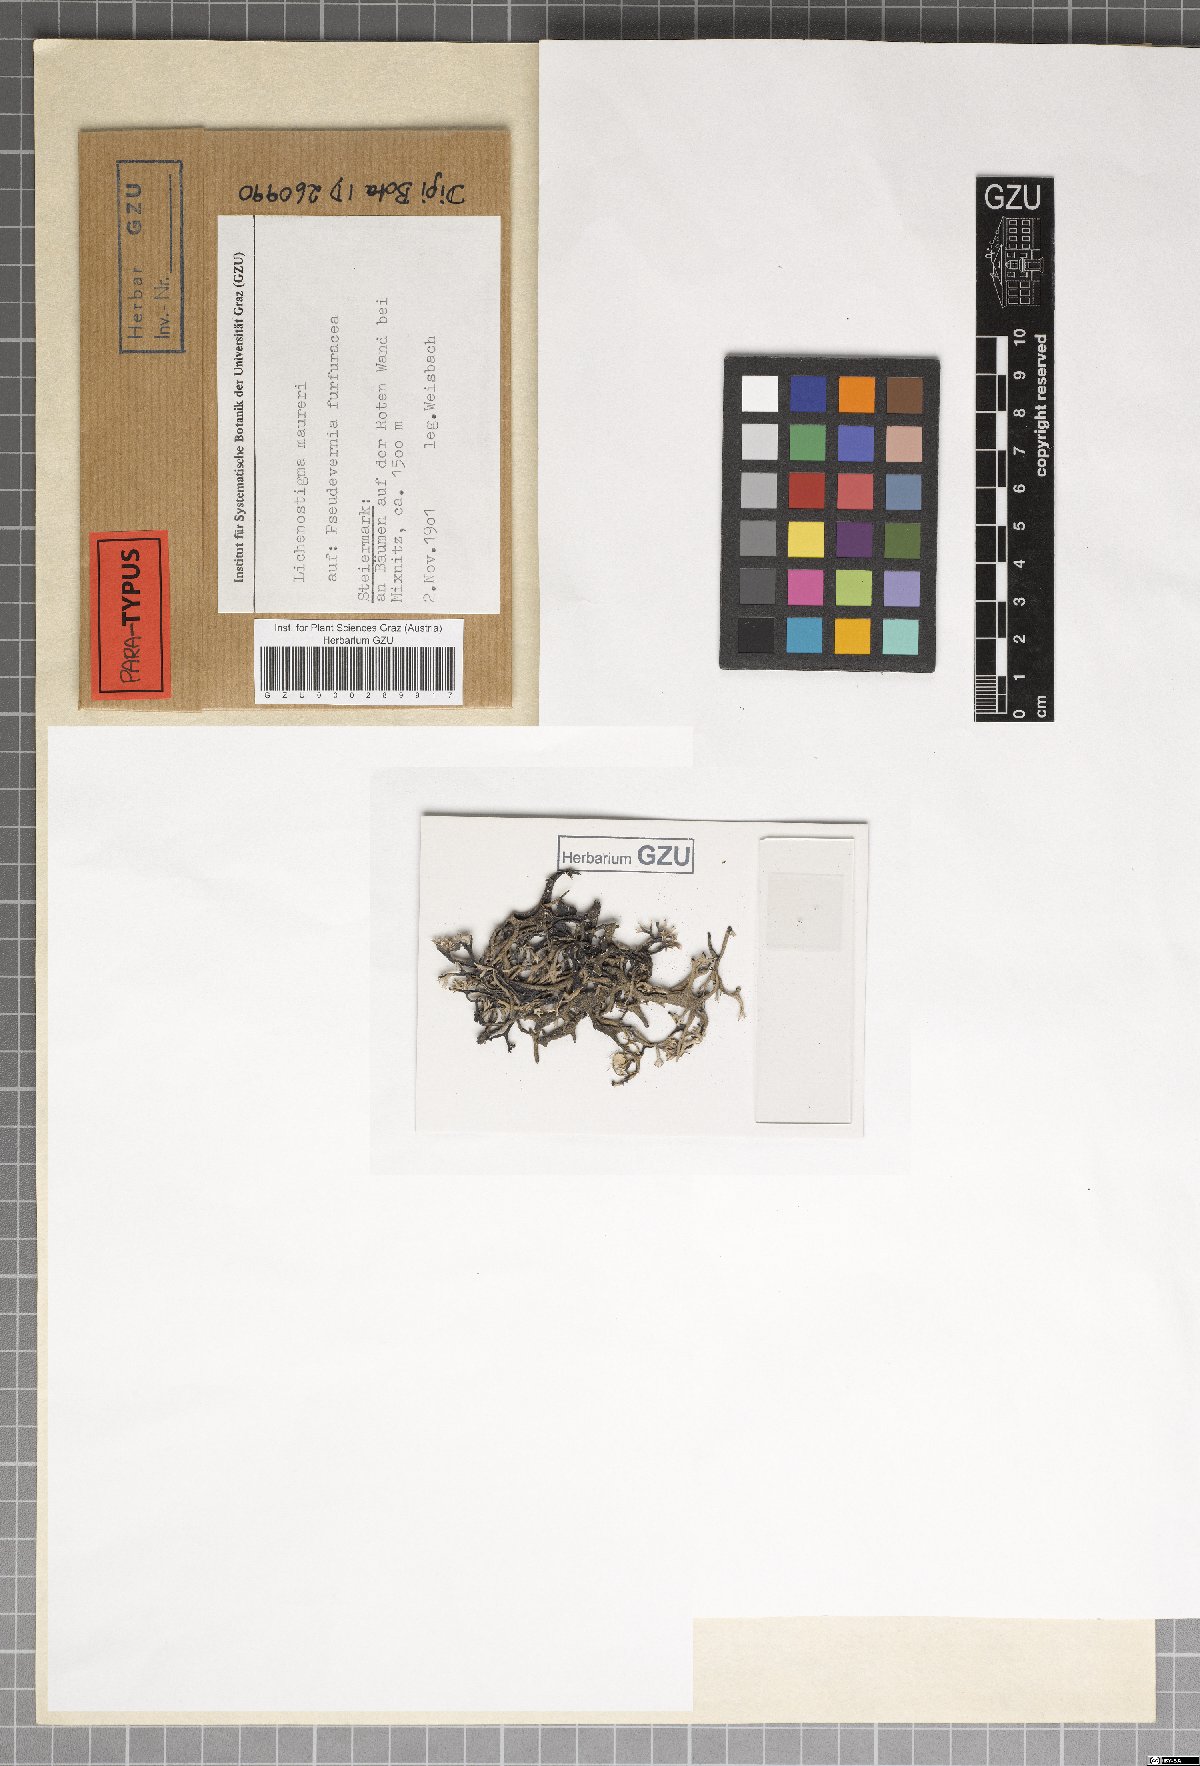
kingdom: Fungi
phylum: Ascomycota
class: Arthoniomycetes
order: Lichenostigmatales
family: Phaeococcomycetaceae
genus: Lichenostigma
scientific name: Lichenostigma maureri
